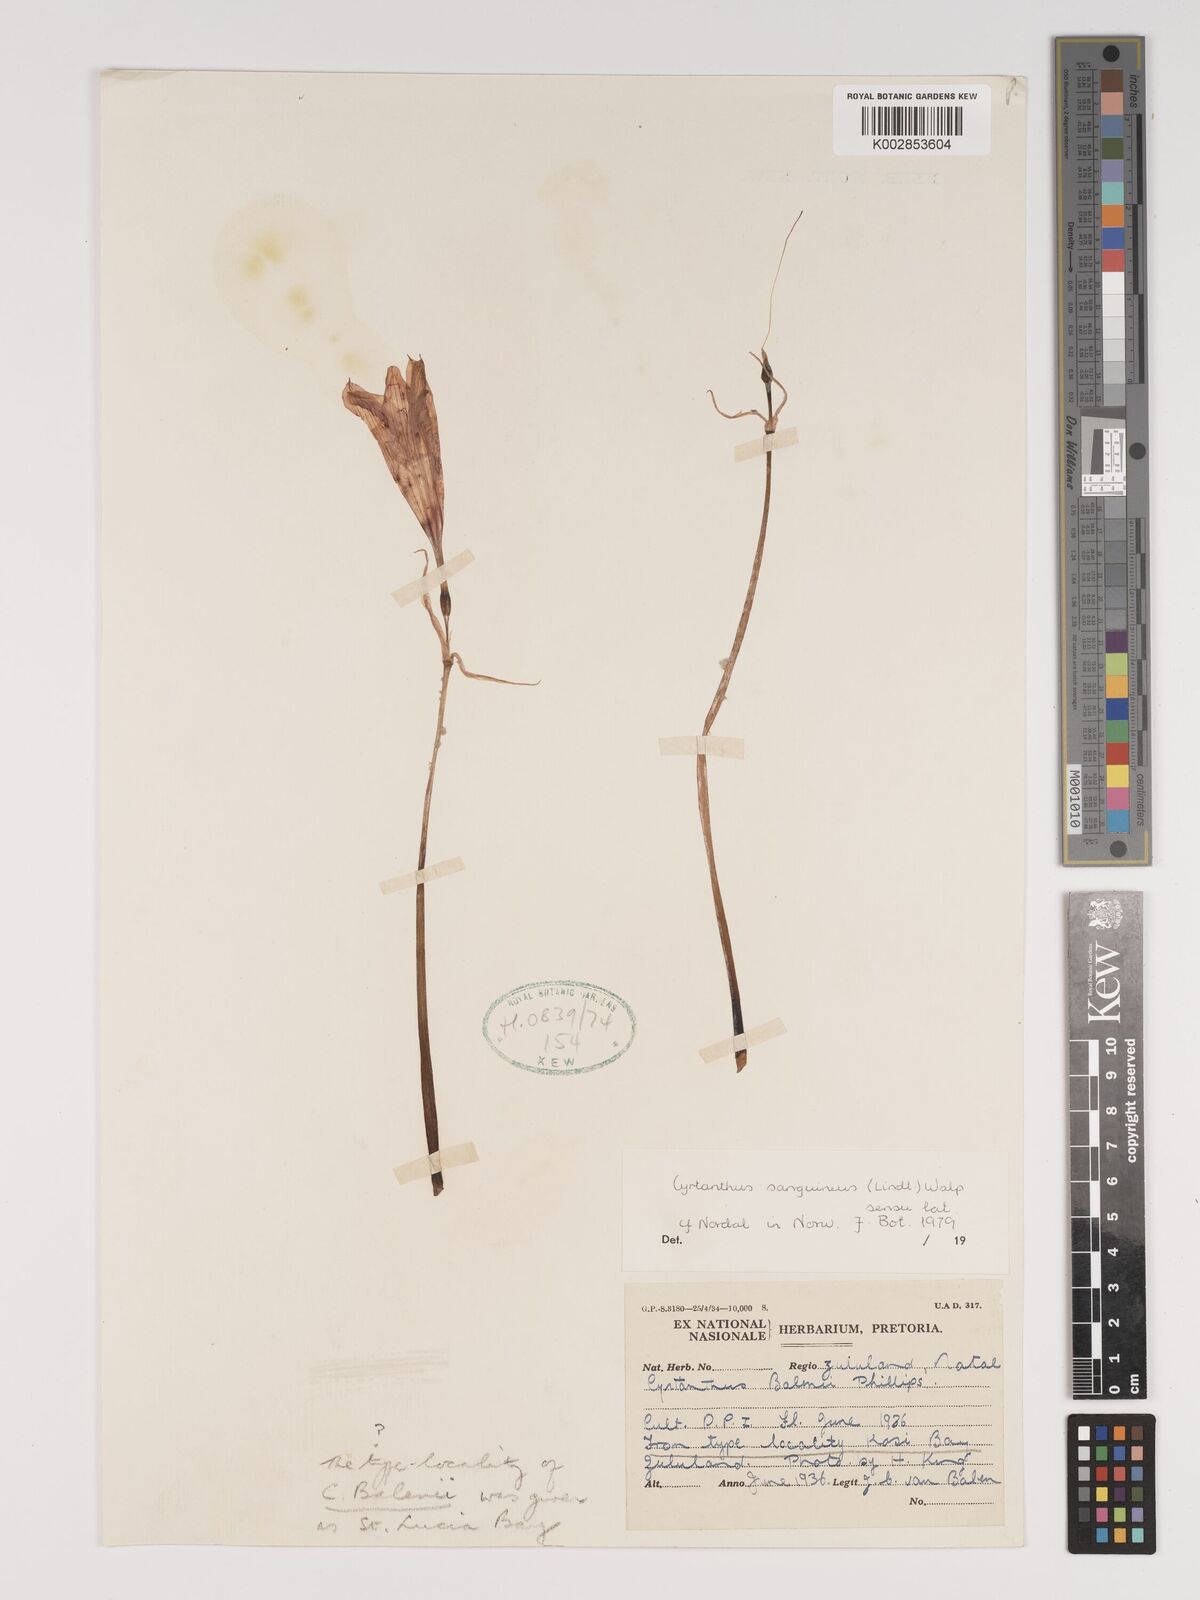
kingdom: Plantae
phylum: Tracheophyta
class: Liliopsida
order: Asparagales
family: Amaryllidaceae
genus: Cyrtanthus
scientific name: Cyrtanthus sanguineus
